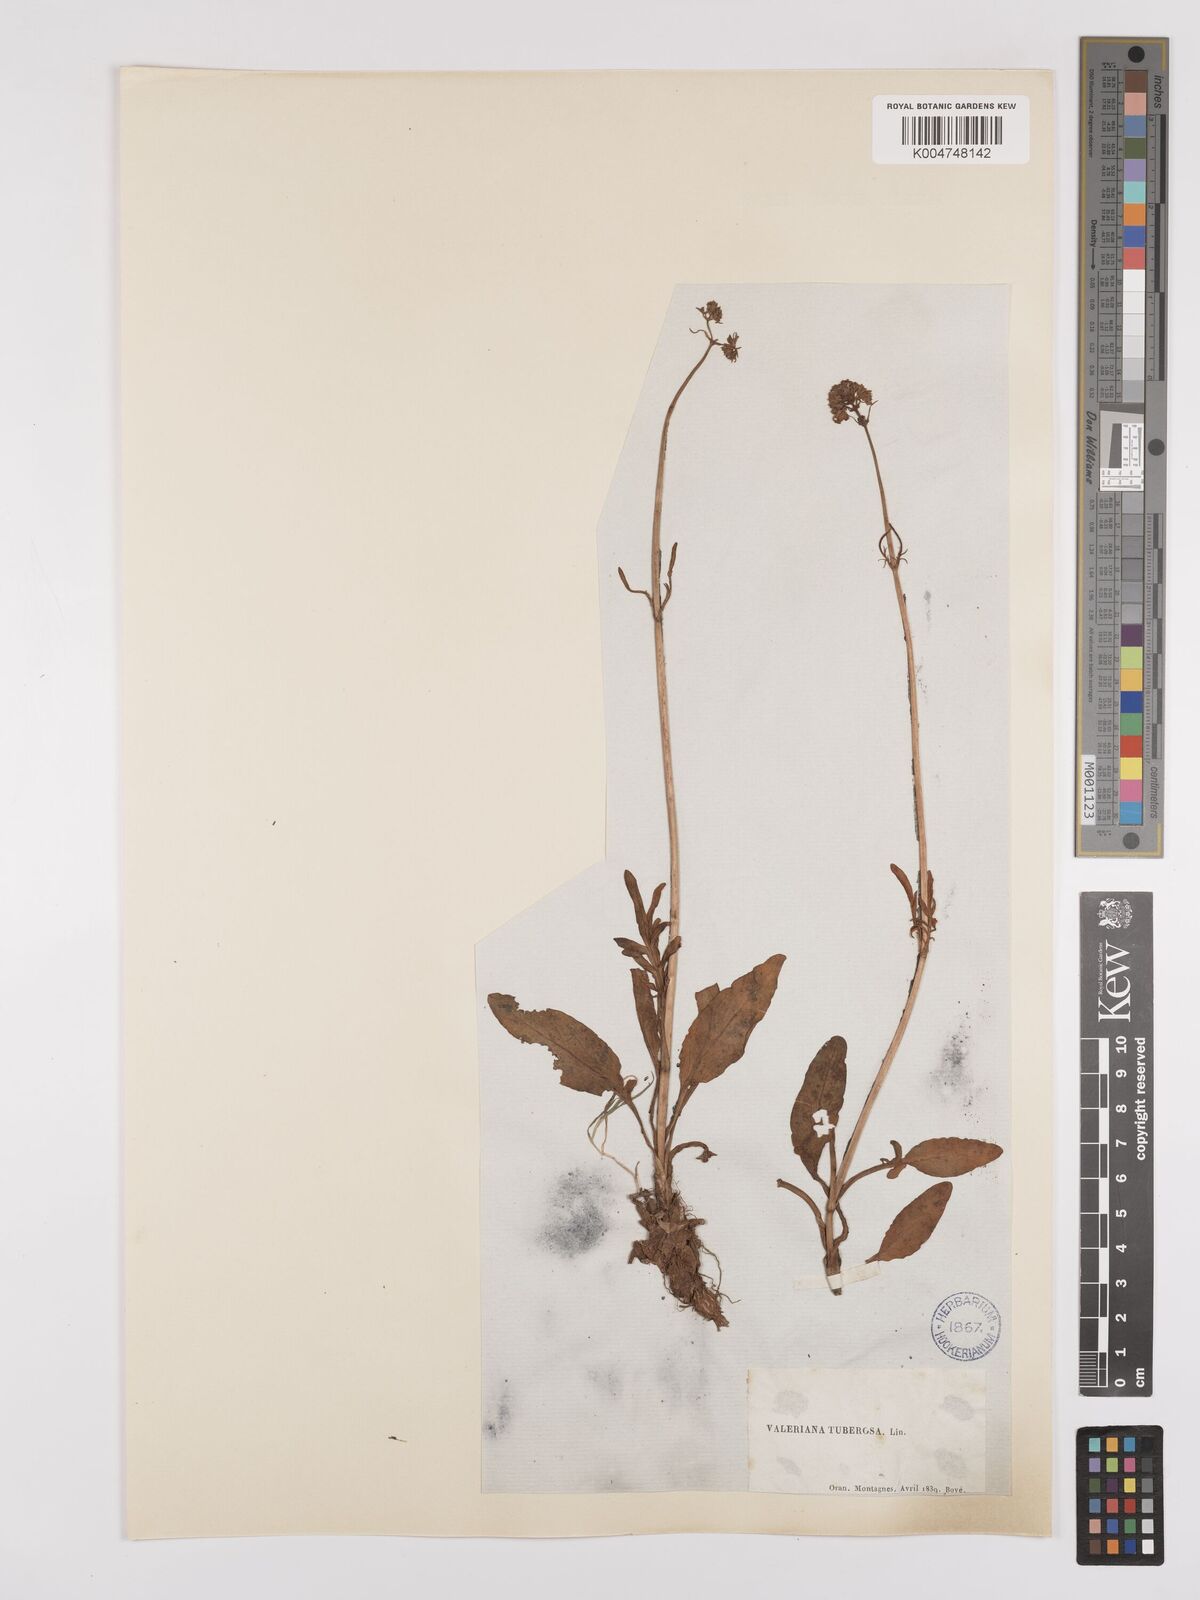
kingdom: Plantae
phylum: Tracheophyta
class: Magnoliopsida
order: Dipsacales
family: Caprifoliaceae
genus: Valeriana
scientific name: Valeriana tuberosa
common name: Tuberous valerian
